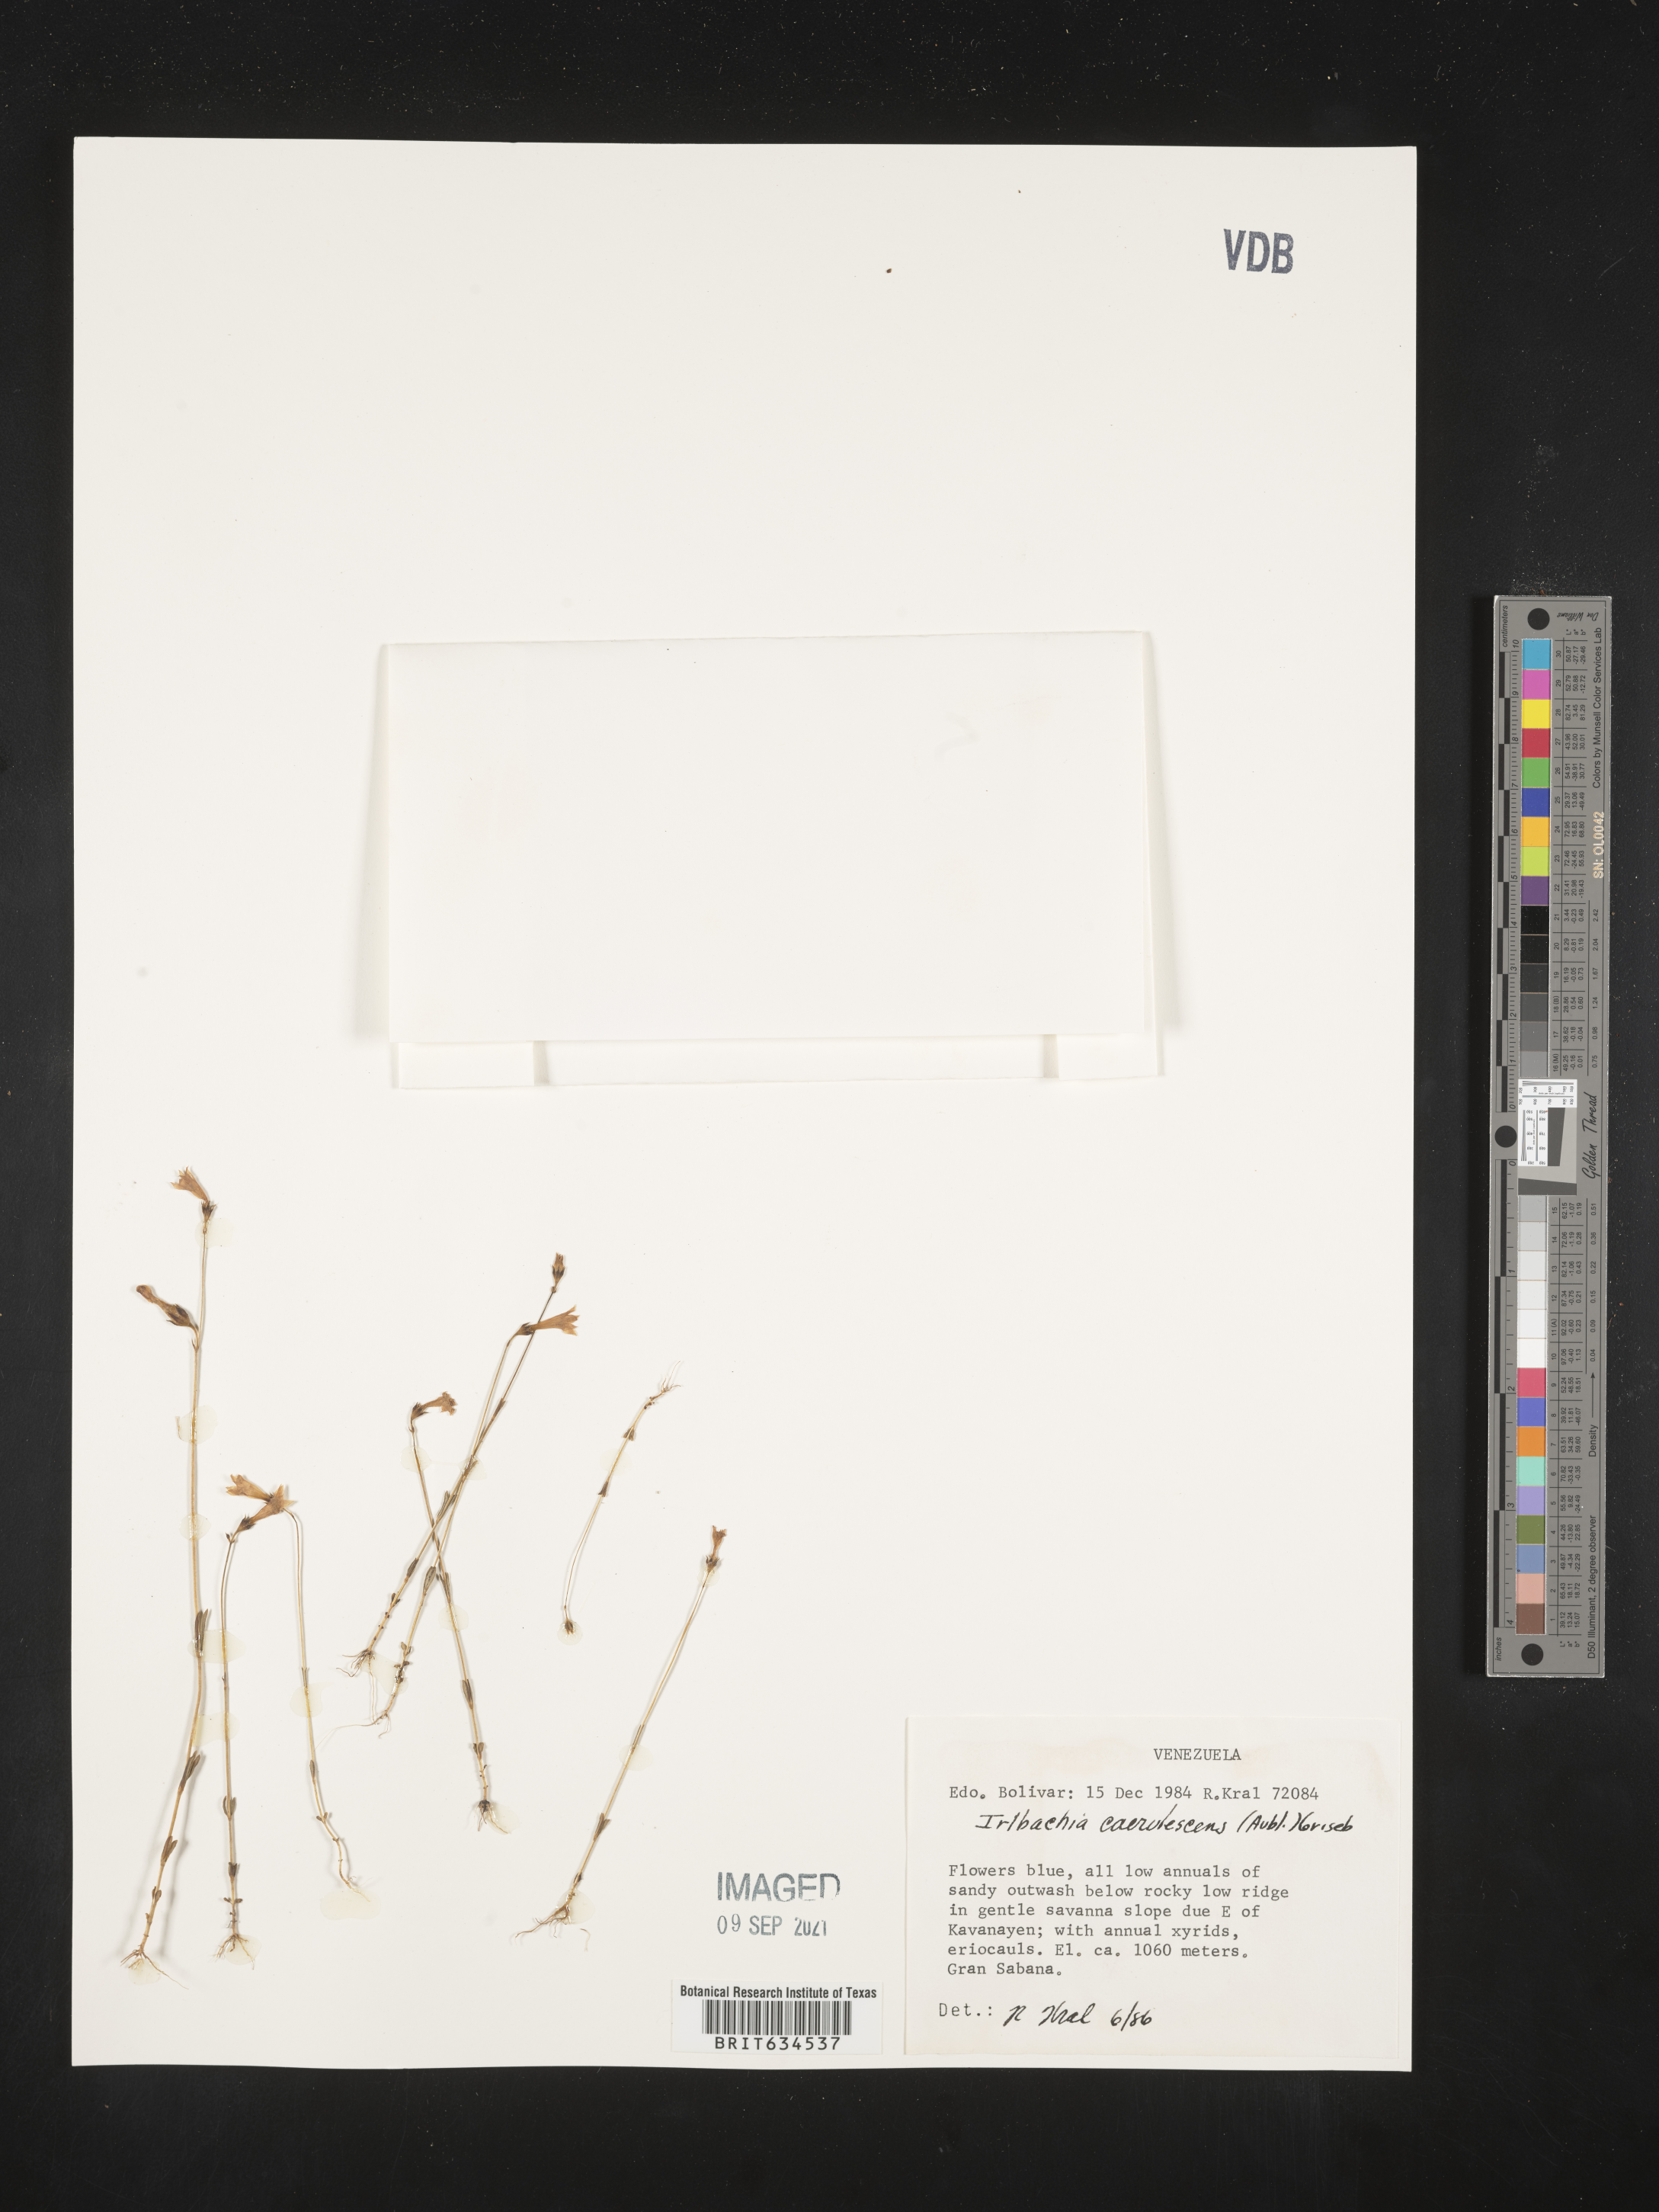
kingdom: Plantae
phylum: Tracheophyta
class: Magnoliopsida
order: Gentianales
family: Gentianaceae
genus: Irlbachia
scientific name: Irlbachia
